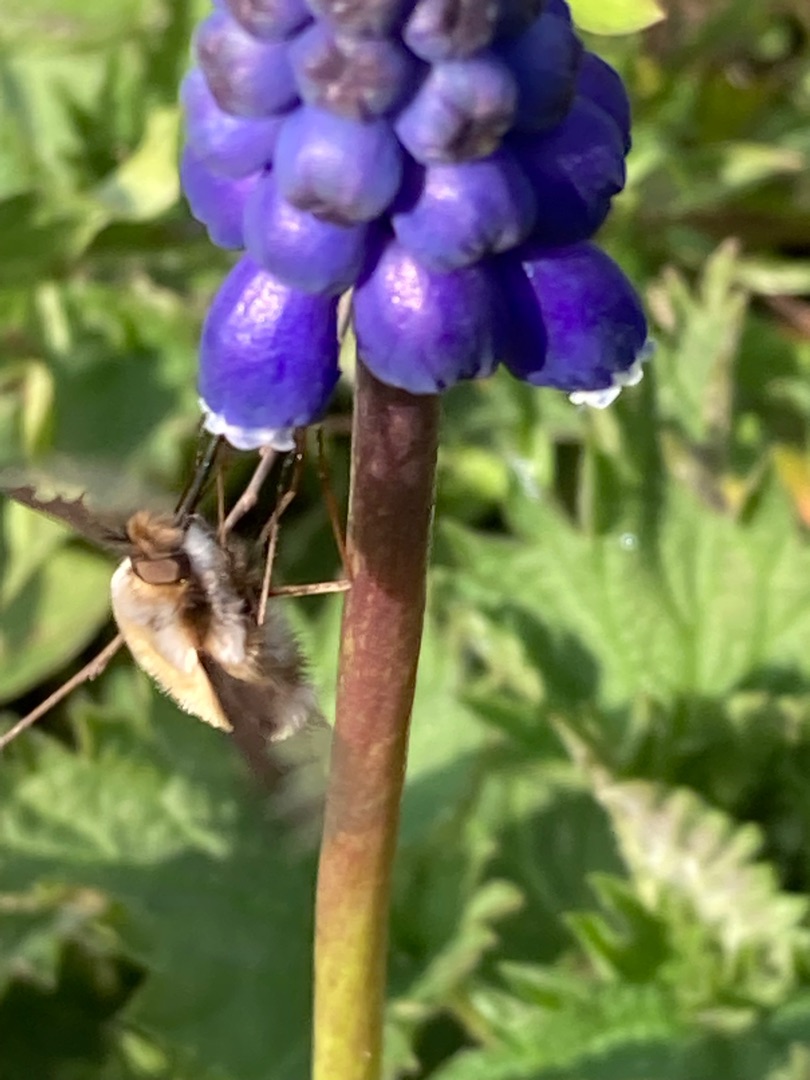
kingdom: Animalia
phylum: Arthropoda
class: Insecta
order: Diptera
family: Bombyliidae
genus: Bombylius
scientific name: Bombylius major
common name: Stor humleflue
